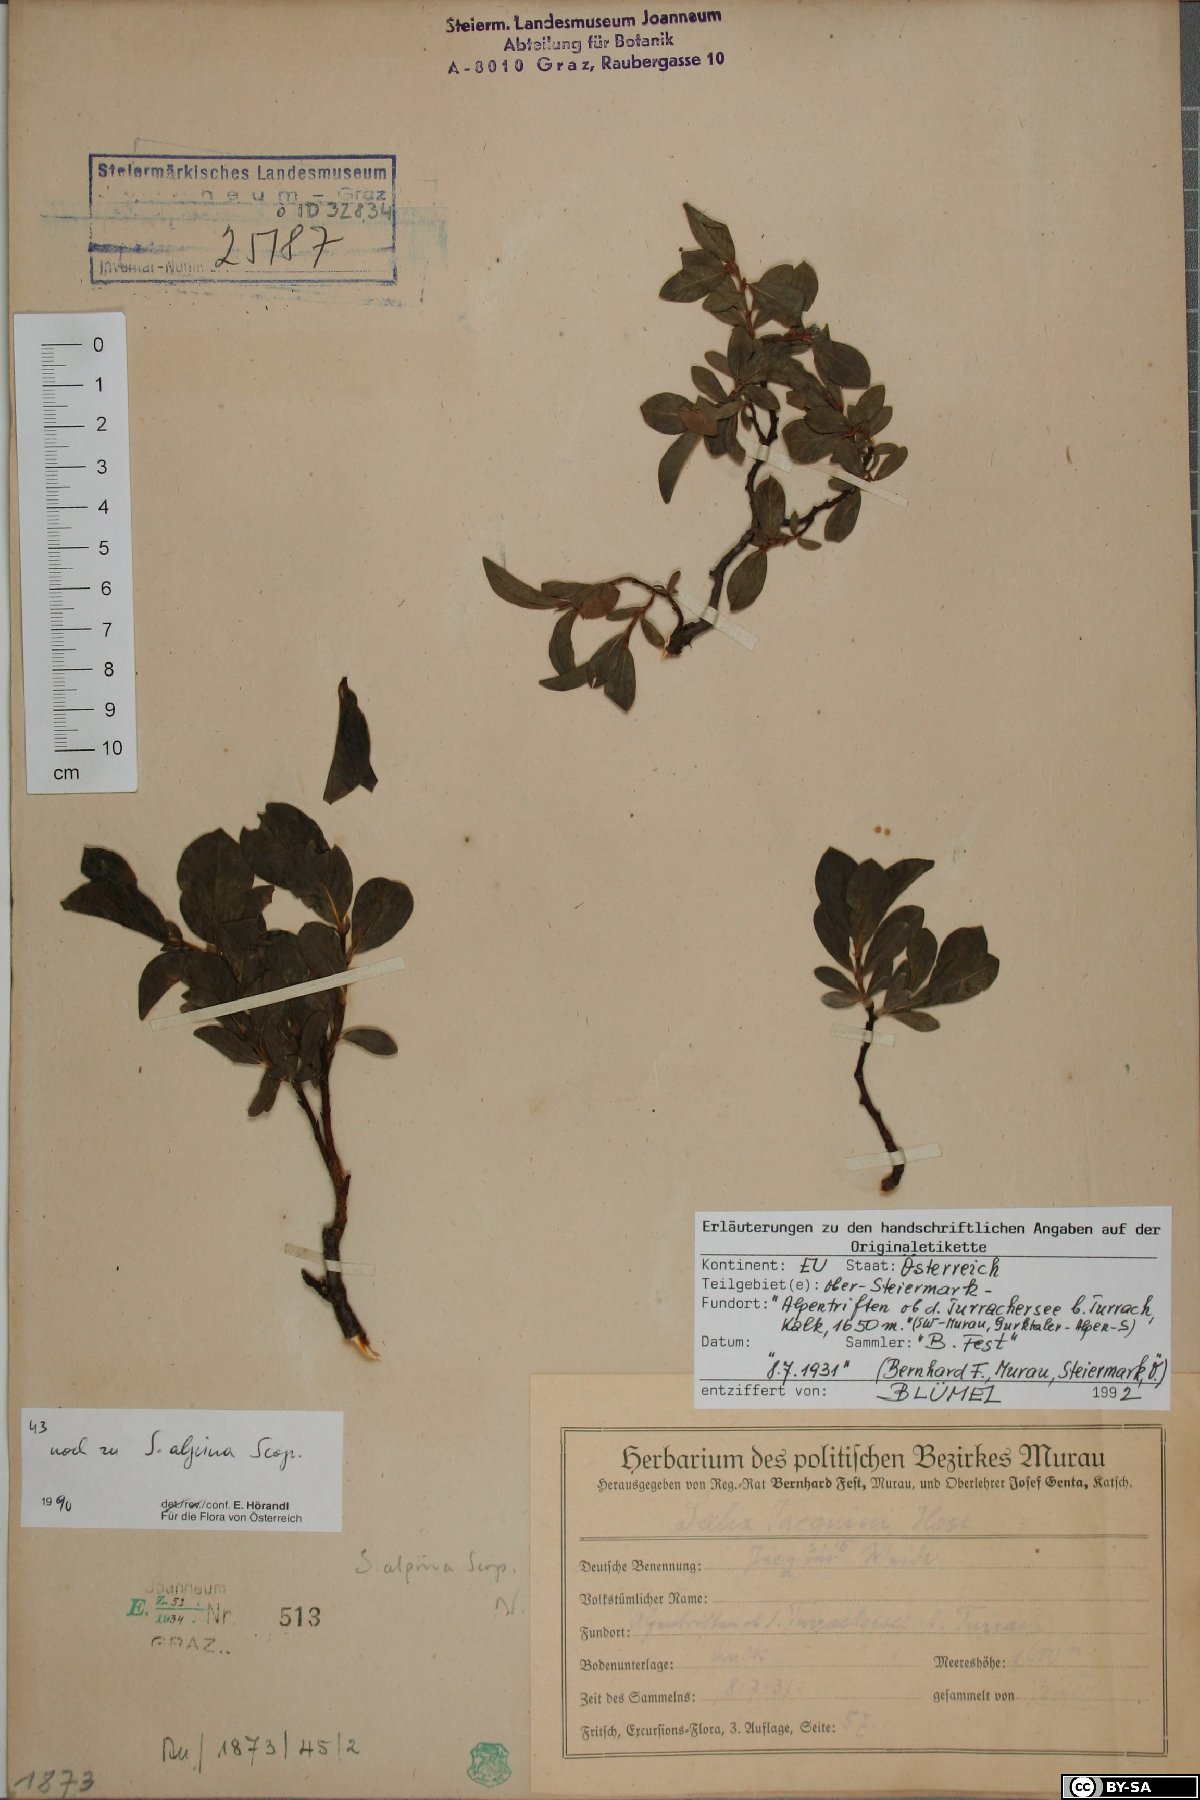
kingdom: Plantae
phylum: Tracheophyta
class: Magnoliopsida
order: Malpighiales
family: Salicaceae
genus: Salix
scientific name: Salix alpina
